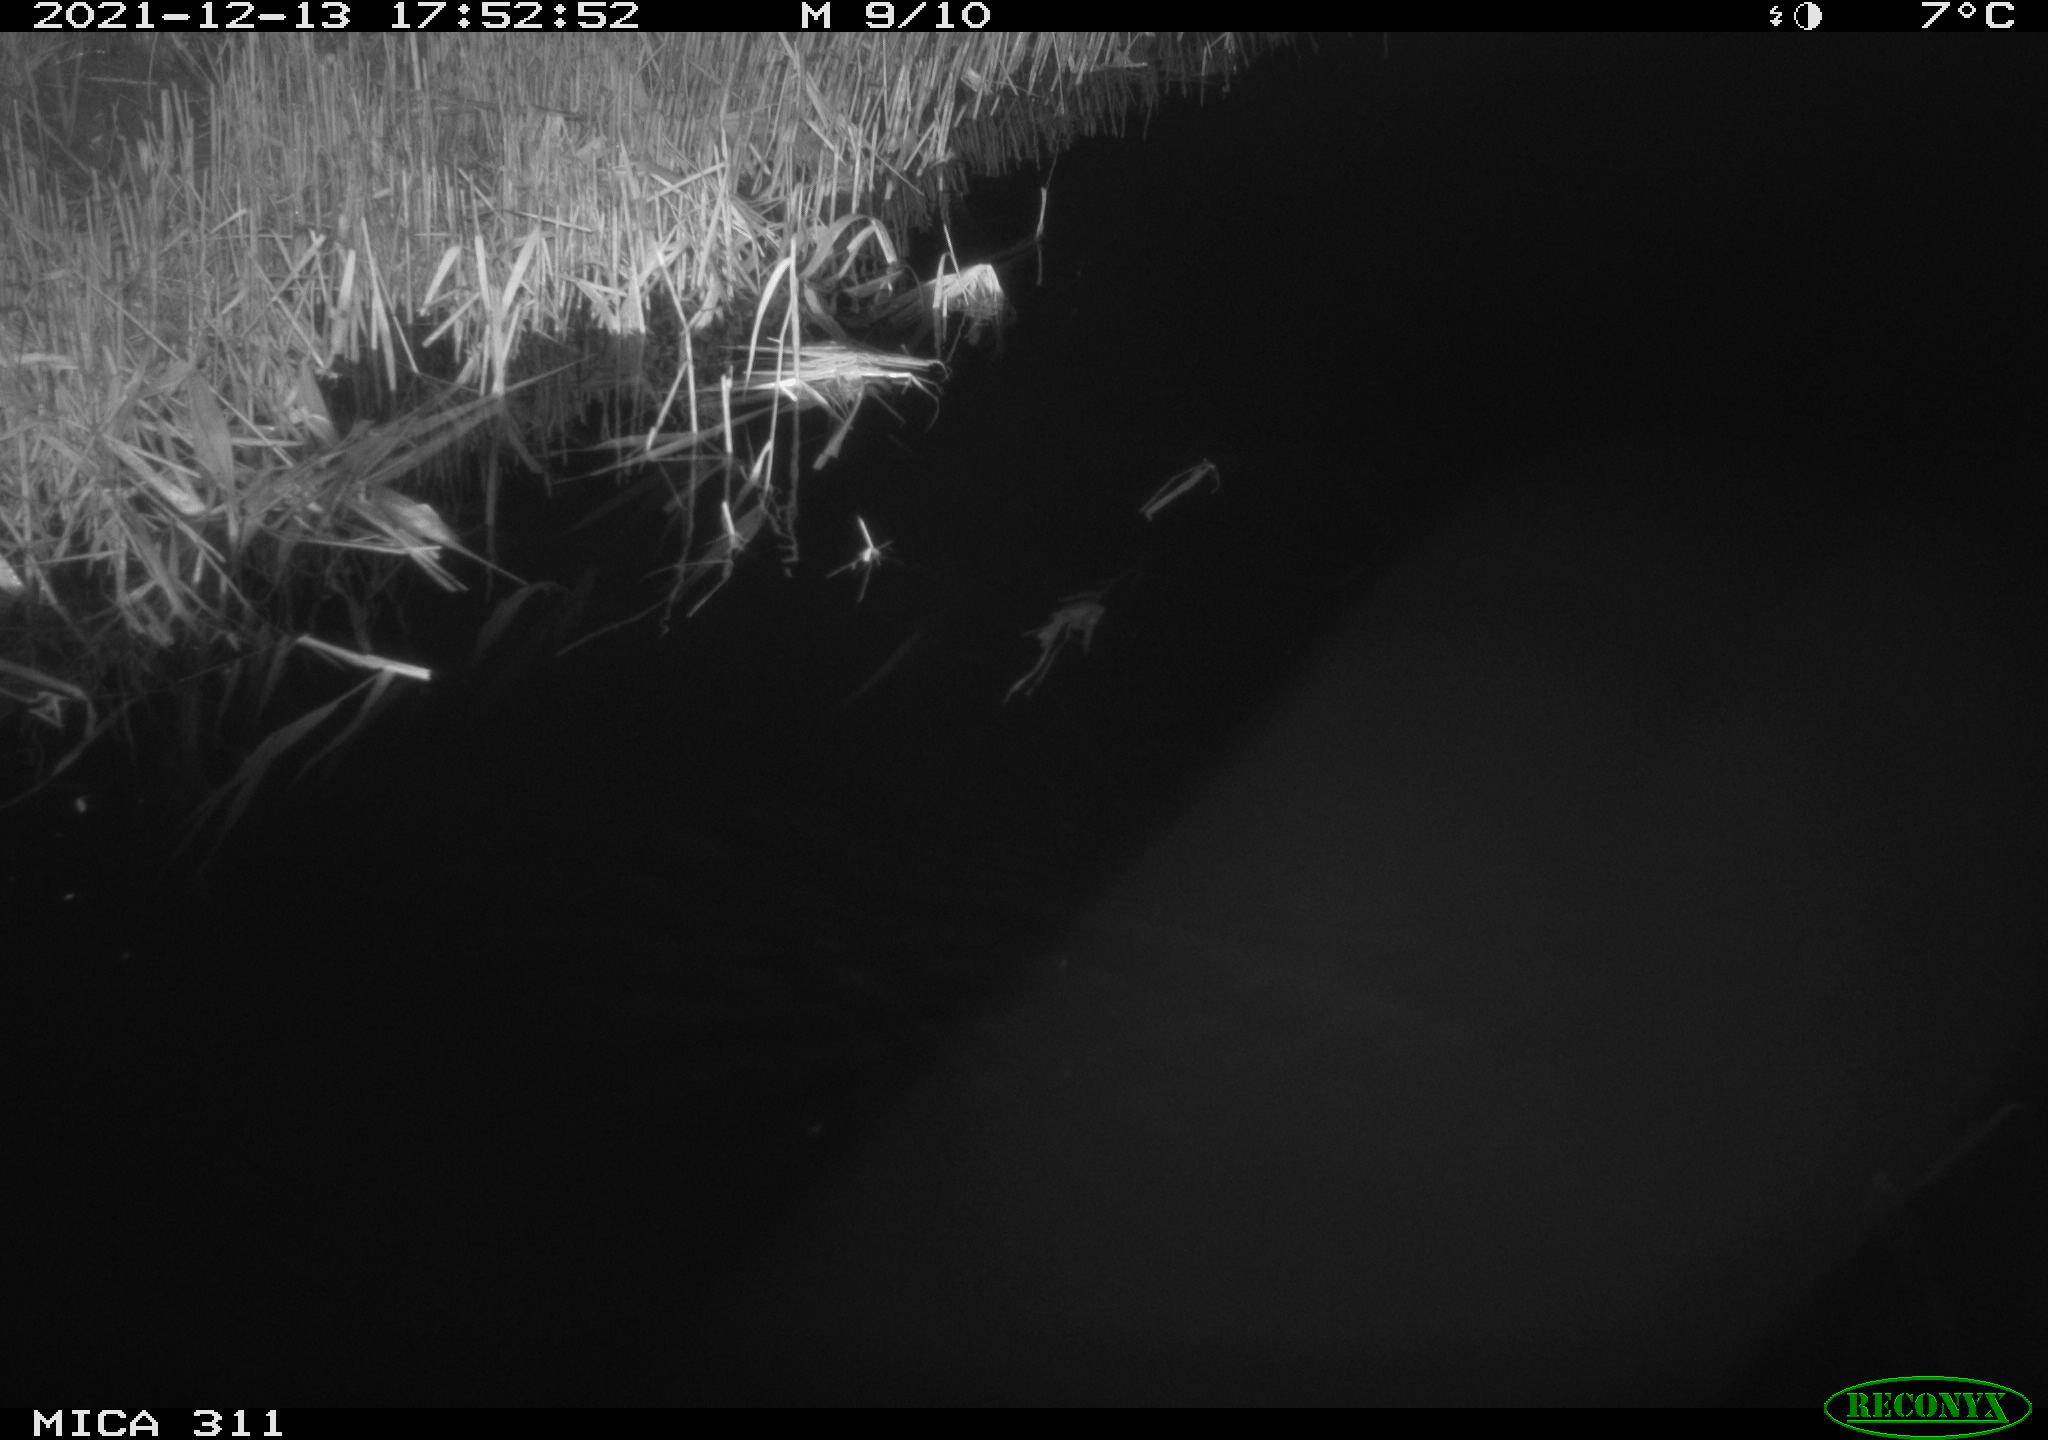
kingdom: Animalia
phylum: Chordata
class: Mammalia
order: Rodentia
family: Muridae
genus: Rattus
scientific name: Rattus norvegicus
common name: Brown rat
